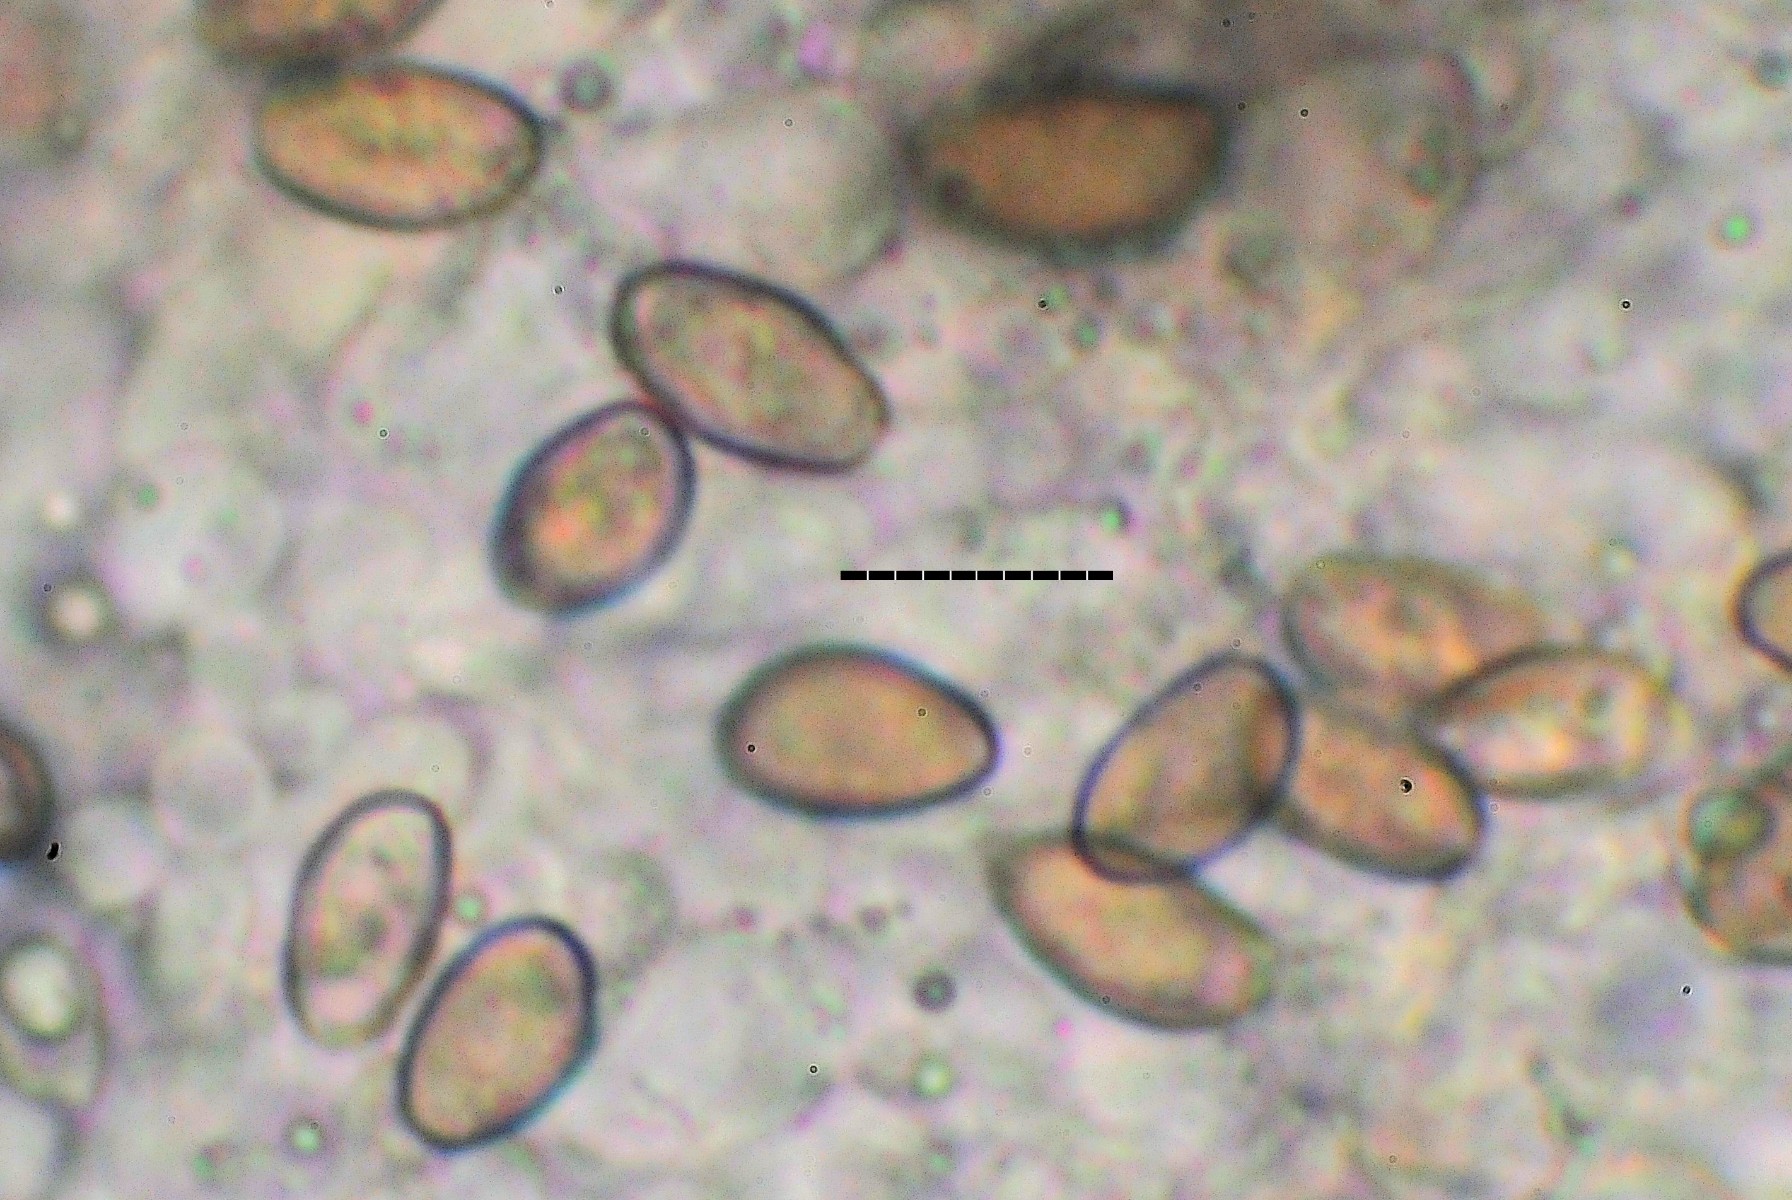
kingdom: Fungi
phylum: Basidiomycota
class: Agaricomycetes
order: Agaricales
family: Strophariaceae
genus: Hypholoma
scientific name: Hypholoma elongatum
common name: slank svovlhat
